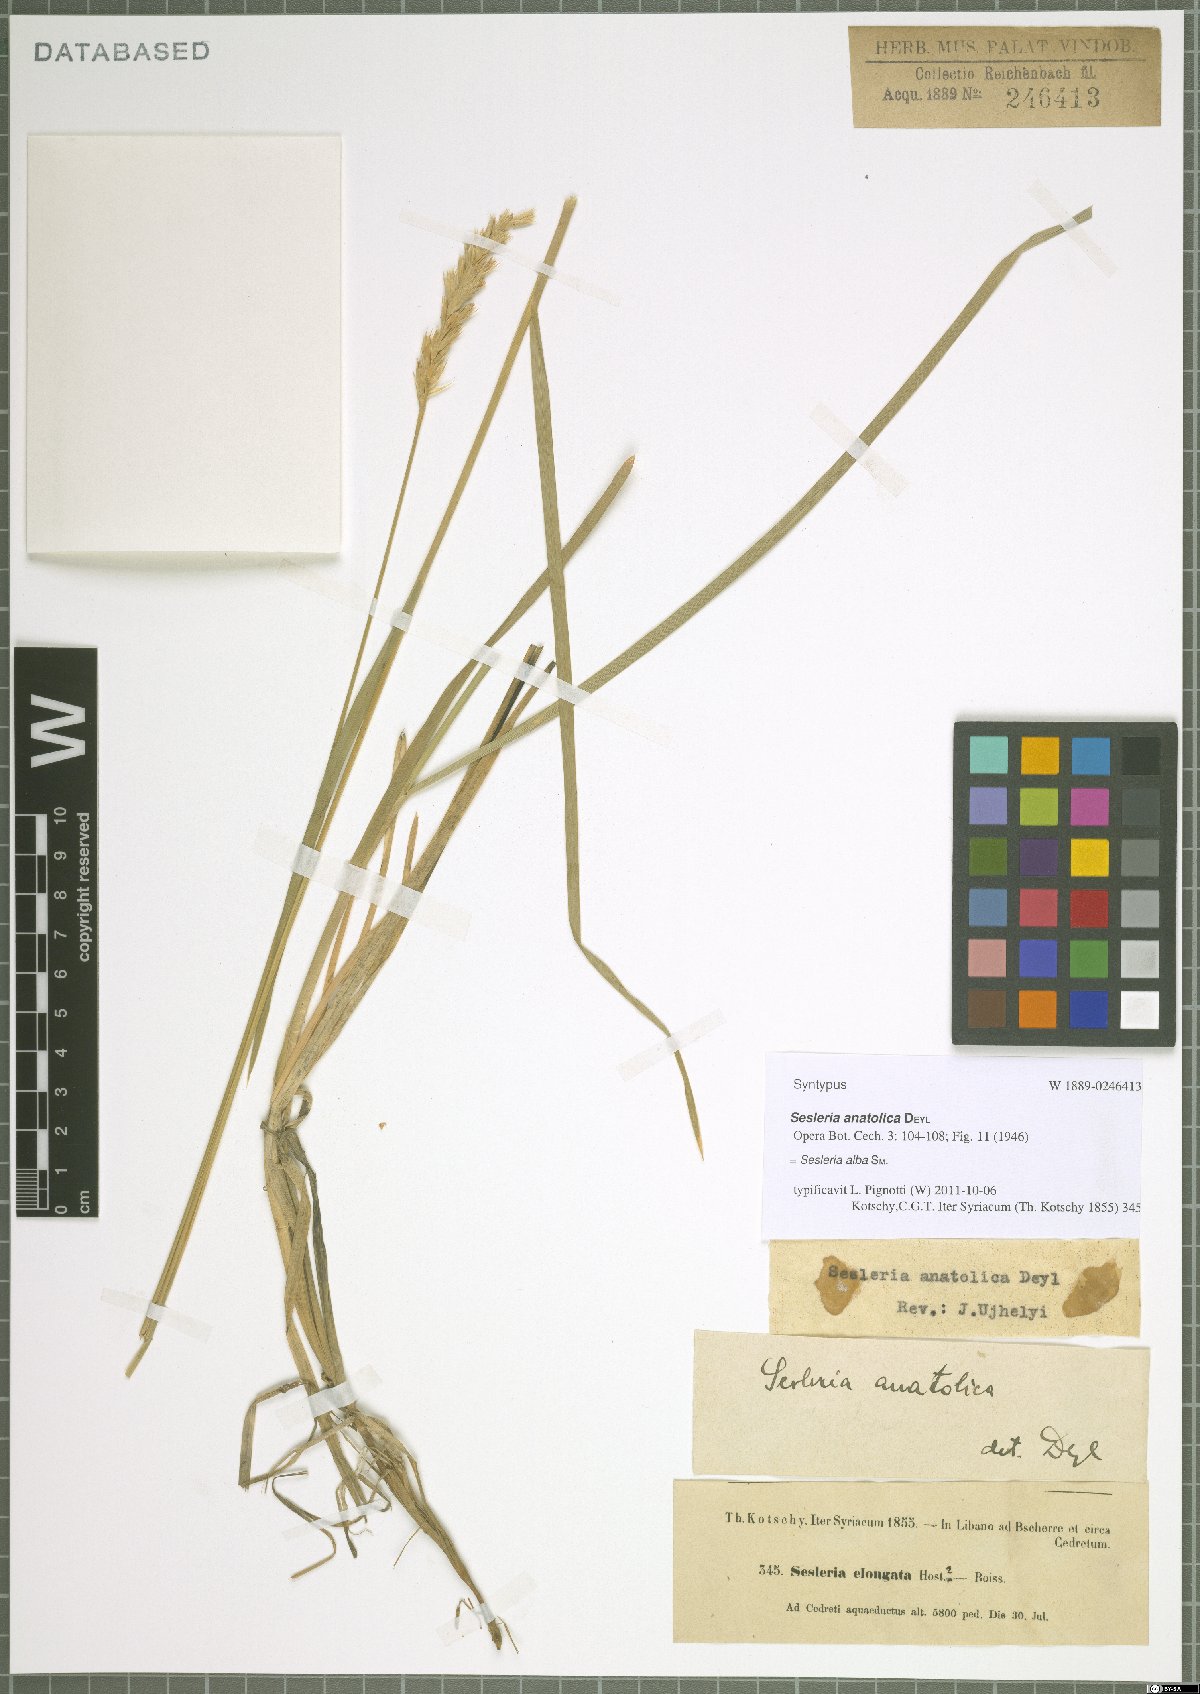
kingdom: Plantae
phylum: Tracheophyta
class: Liliopsida
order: Poales
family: Poaceae
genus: Sesleria
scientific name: Sesleria alba
